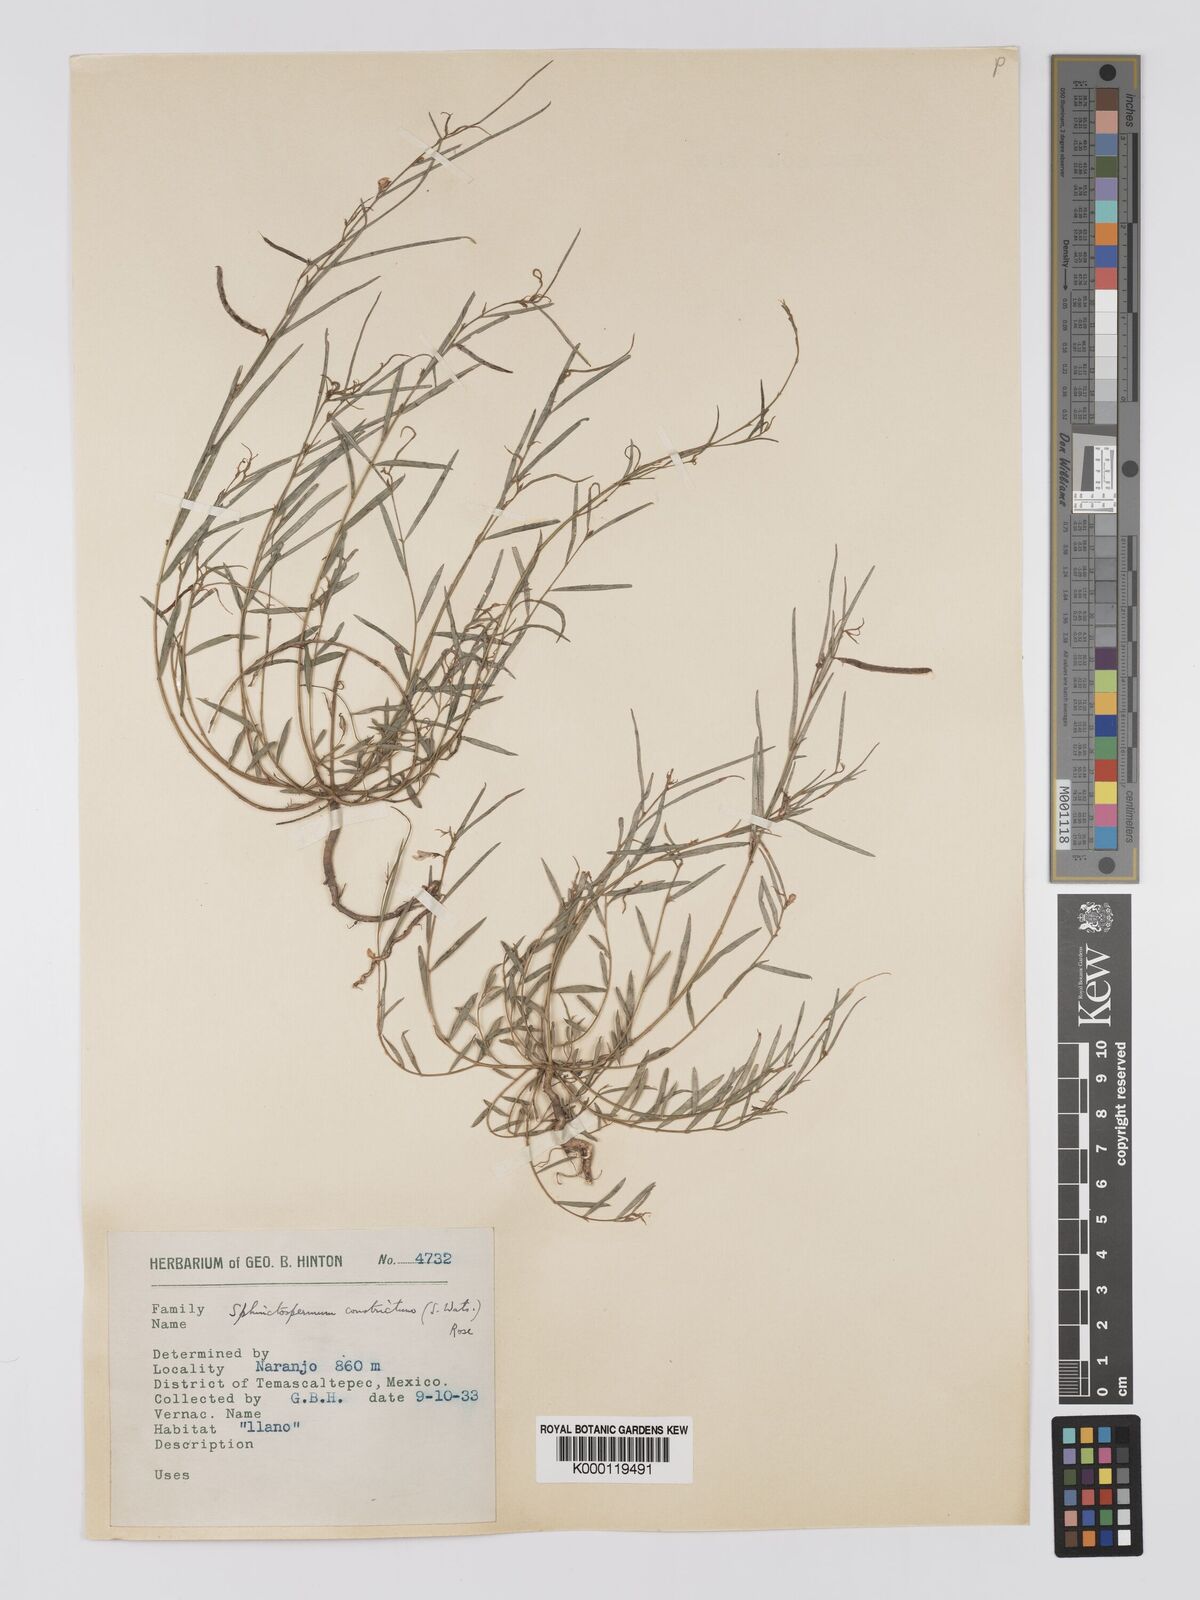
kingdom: Plantae
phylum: Tracheophyta
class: Magnoliopsida
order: Fabales
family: Fabaceae
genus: Sphinctospermum
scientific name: Sphinctospermum constrictum
